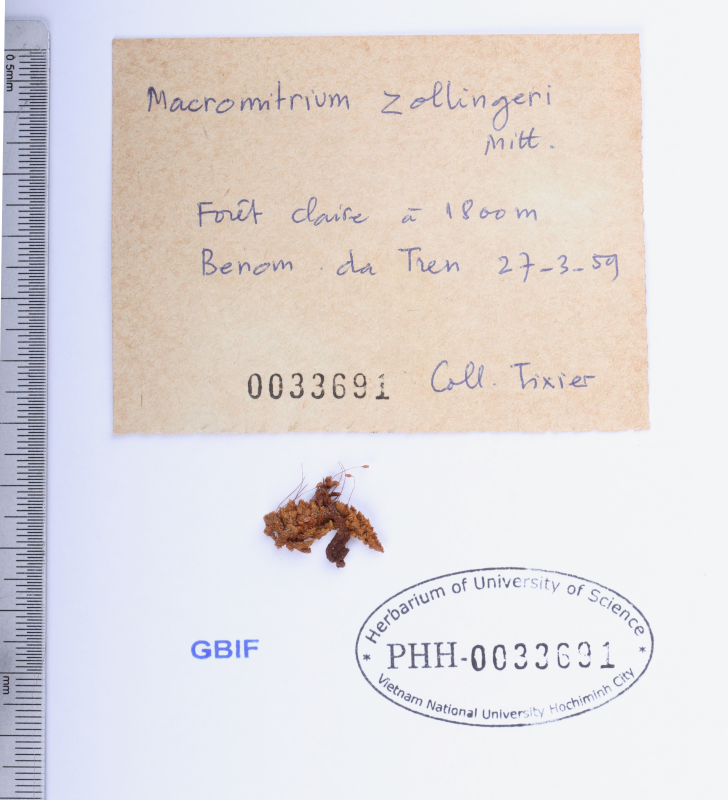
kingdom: Plantae
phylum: Bryophyta
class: Bryopsida
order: Orthotrichales
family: Orthotrichaceae
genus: Macromitrium
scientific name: Macromitrium blumei
